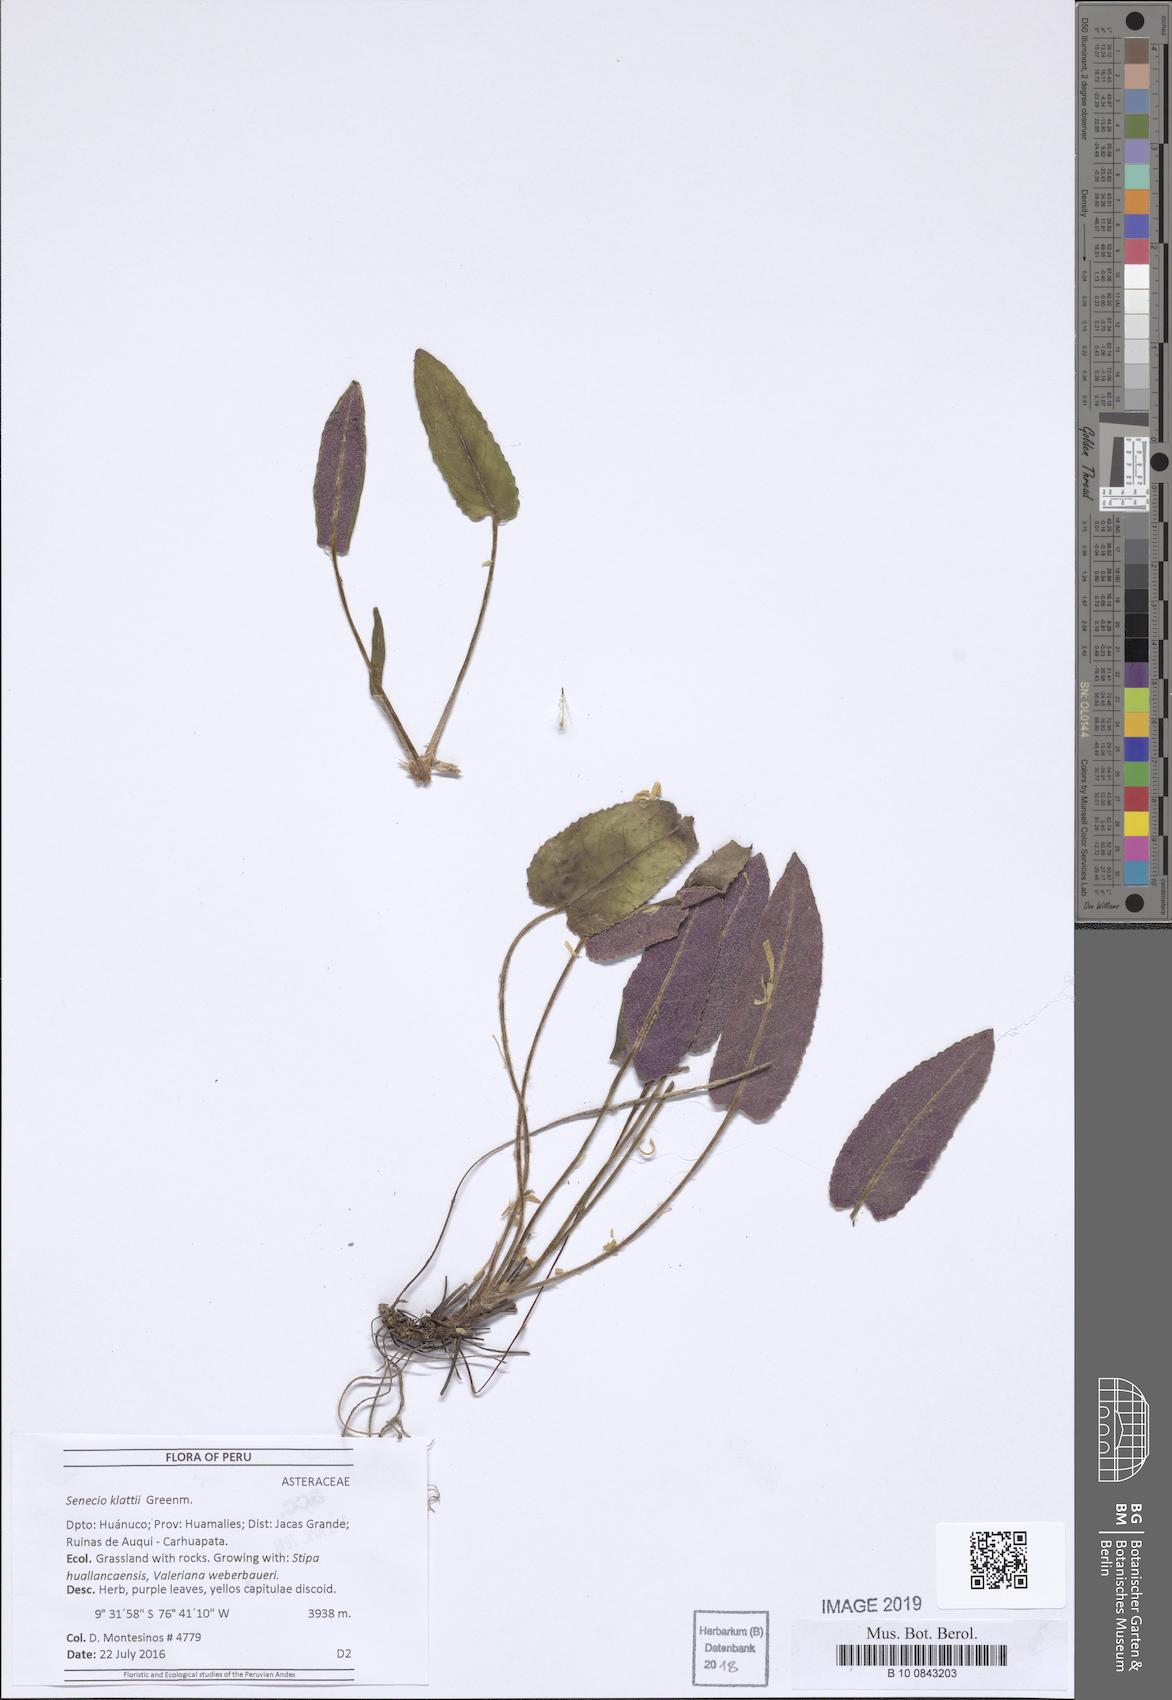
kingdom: Plantae
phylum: Tracheophyta
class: Magnoliopsida
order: Asterales
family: Asteraceae
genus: Senecio
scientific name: Senecio praeruptorum
